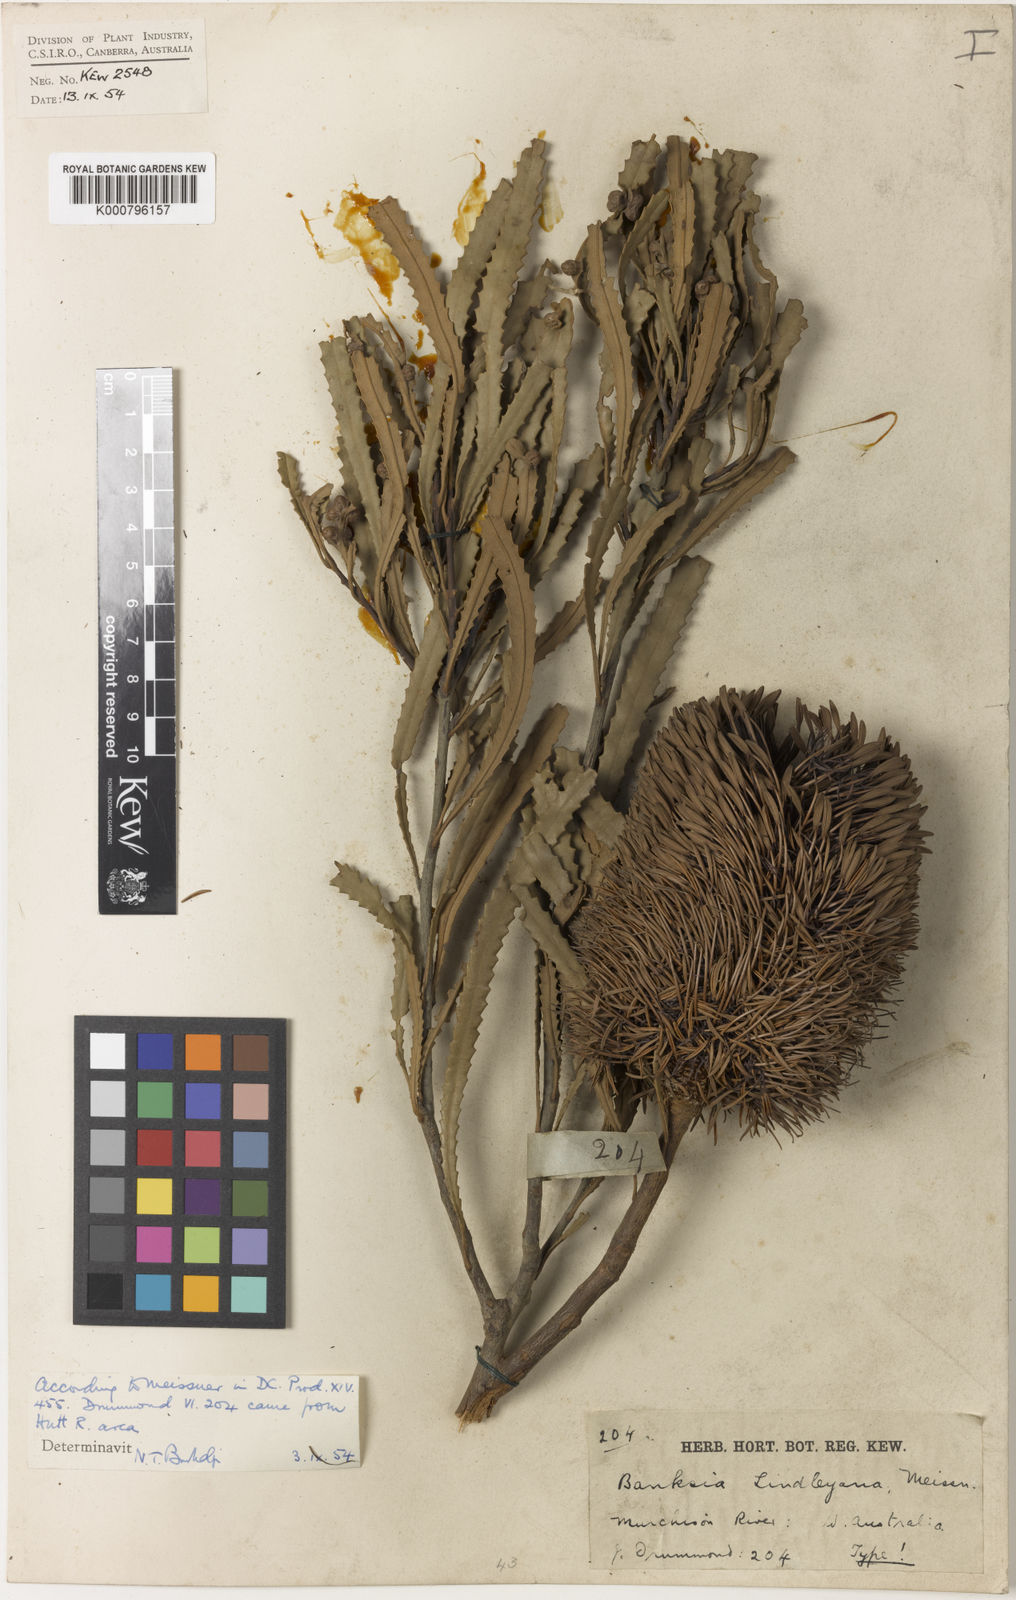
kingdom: Plantae
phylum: Tracheophyta
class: Magnoliopsida
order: Proteales
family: Proteaceae
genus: Banksia
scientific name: Banksia lindleyana
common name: Porcupine banksia
